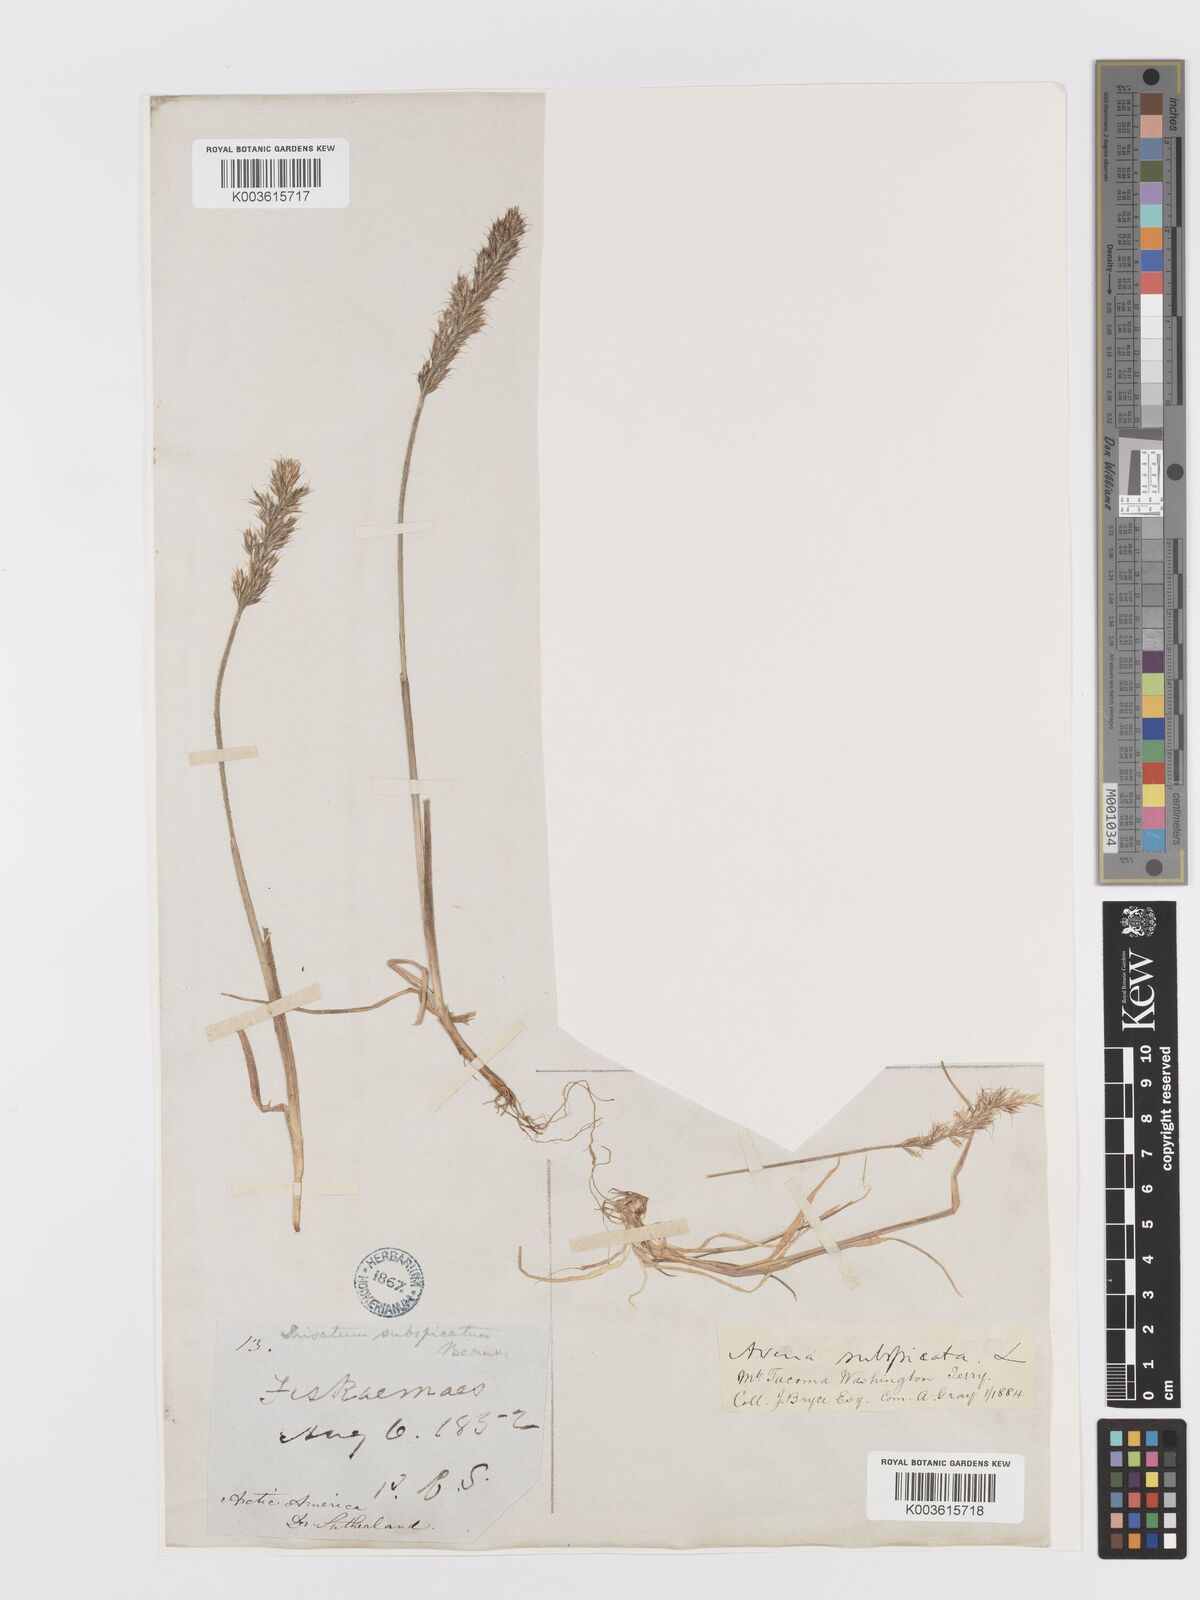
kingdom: Plantae
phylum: Tracheophyta
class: Liliopsida
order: Poales
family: Poaceae
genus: Koeleria
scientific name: Koeleria spicata
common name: Mountain trisetum
